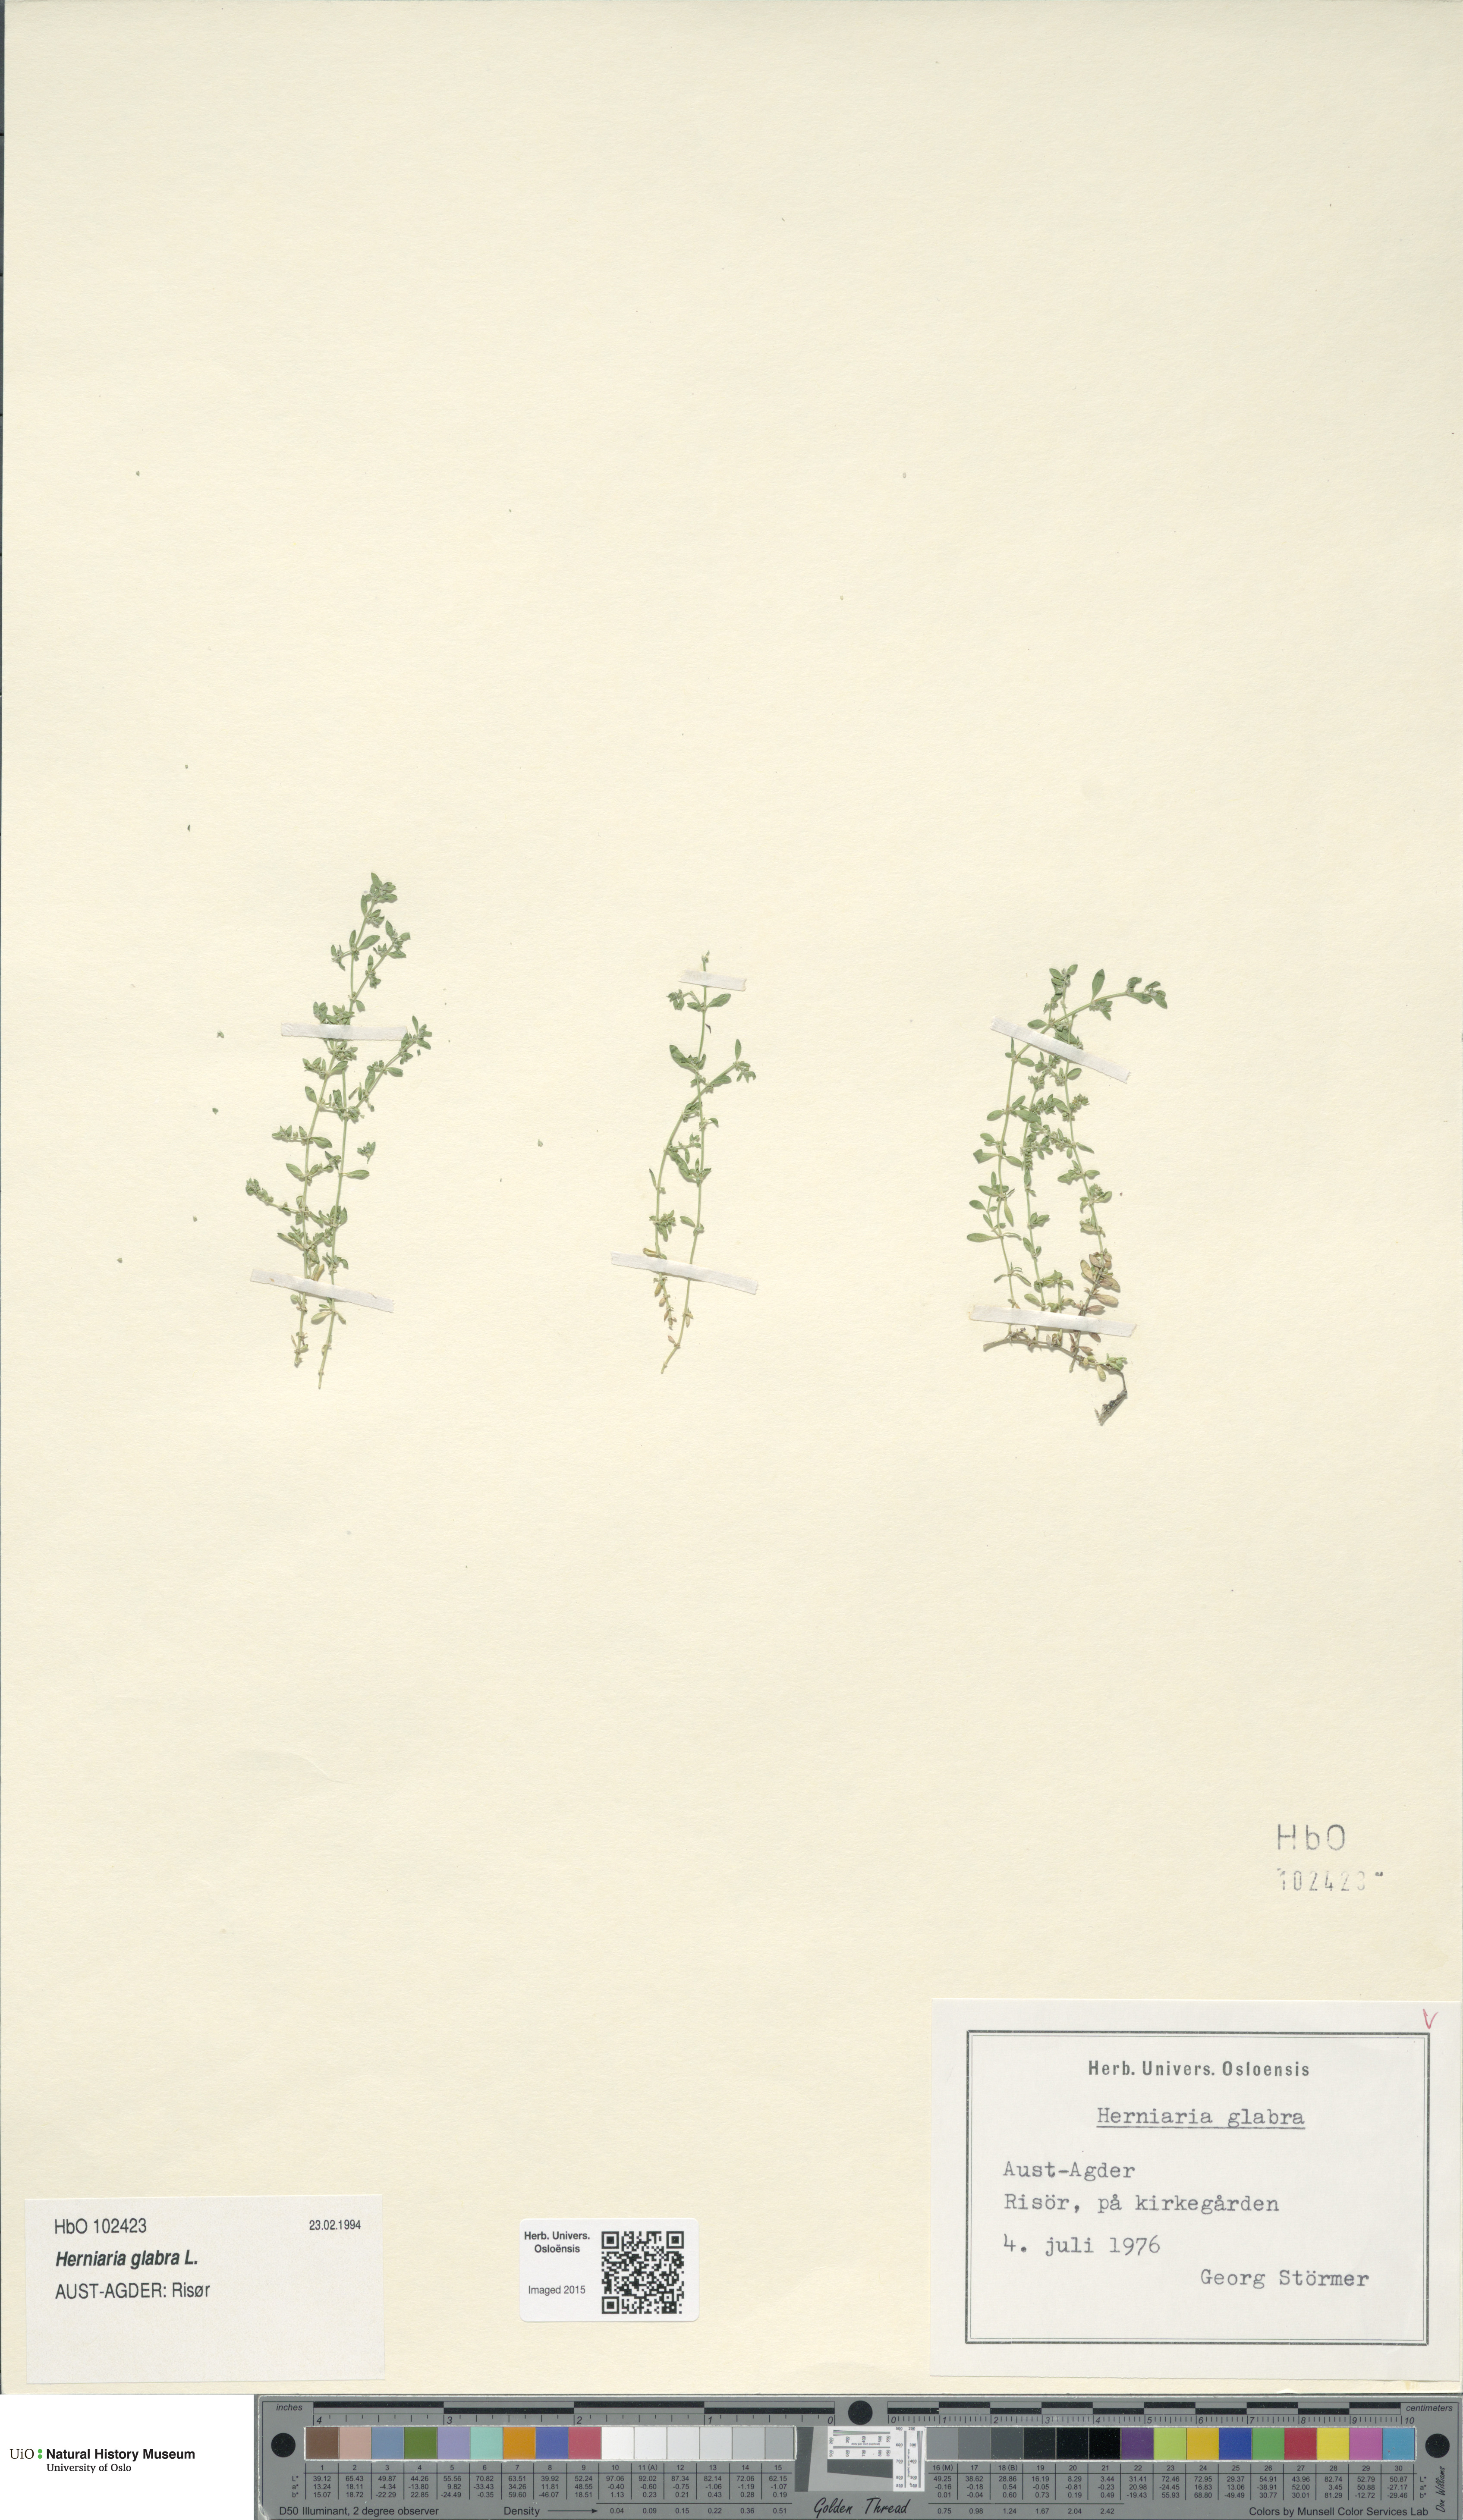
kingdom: Plantae
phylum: Tracheophyta
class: Magnoliopsida
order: Caryophyllales
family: Caryophyllaceae
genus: Herniaria
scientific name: Herniaria glabra
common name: Smooth rupturewort
